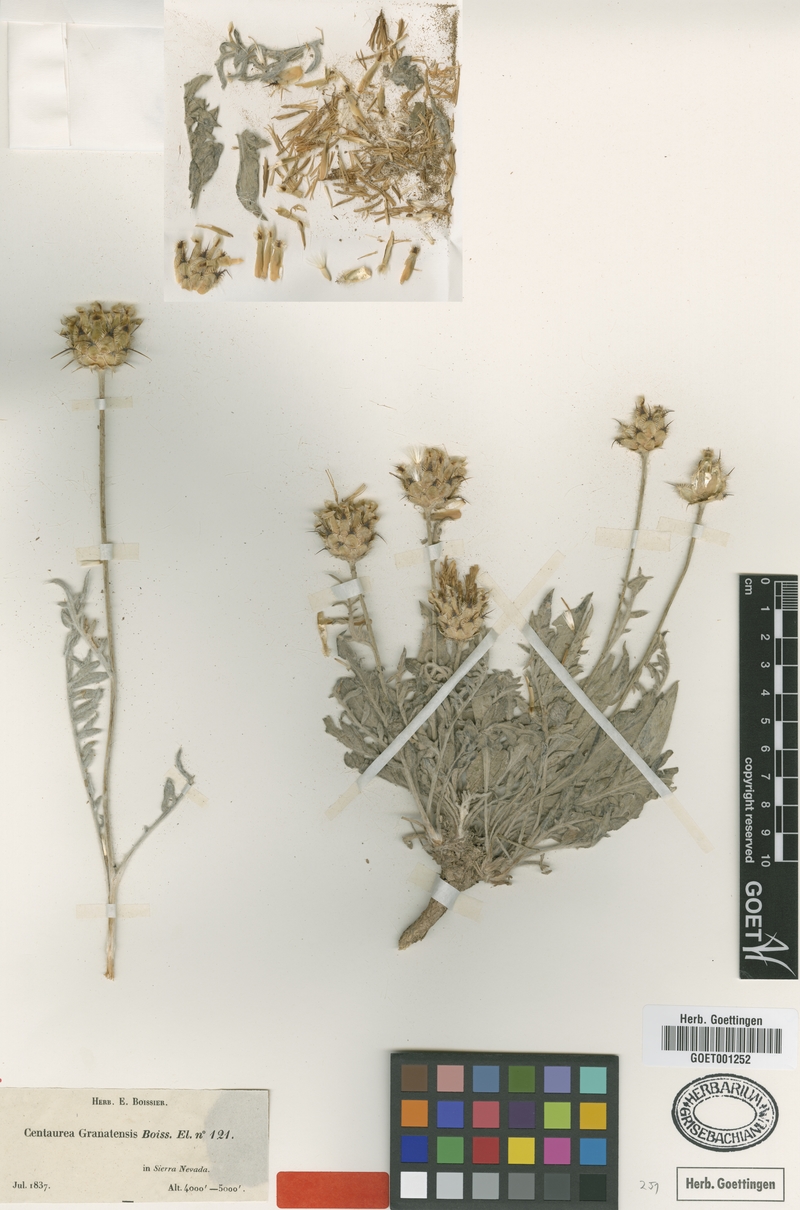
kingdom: Plantae
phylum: Tracheophyta
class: Magnoliopsida
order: Asterales
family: Asteraceae
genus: Centaurea
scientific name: Centaurea granatensis
